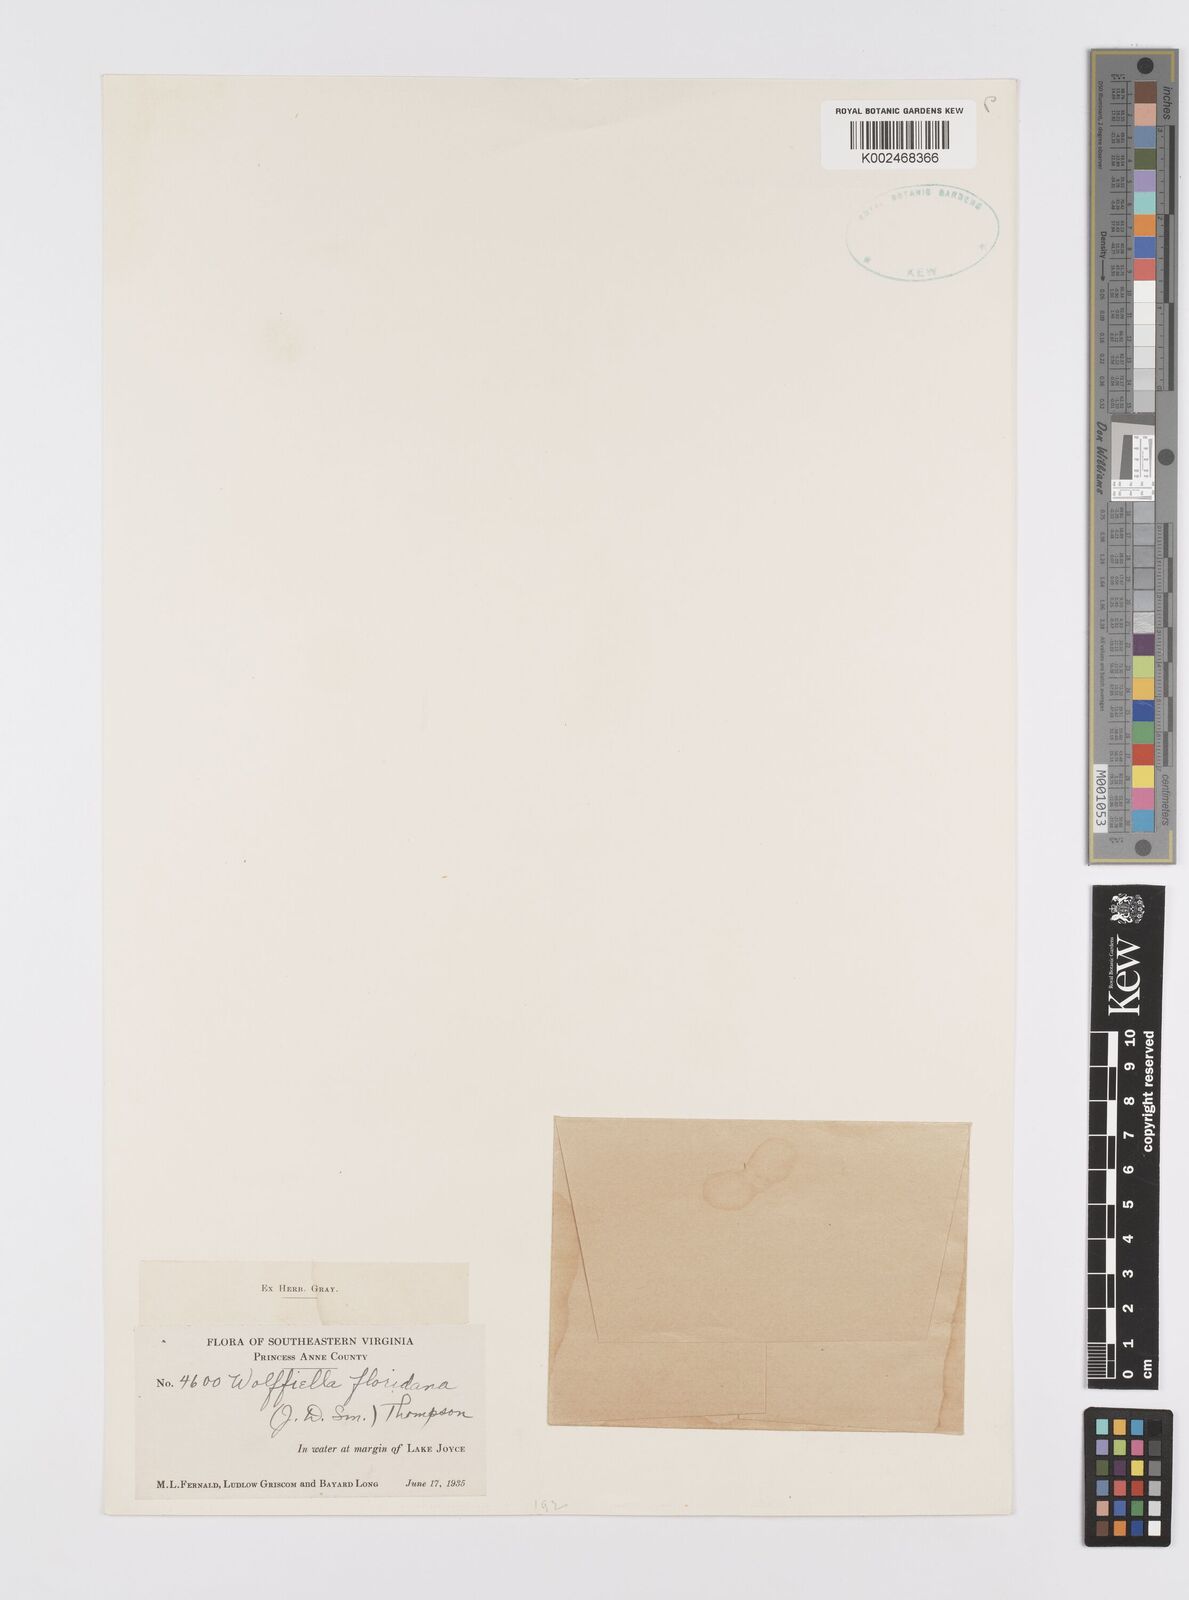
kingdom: Plantae
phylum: Tracheophyta
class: Liliopsida
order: Alismatales
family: Araceae
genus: Wolffiella
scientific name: Wolffiella gladiata
